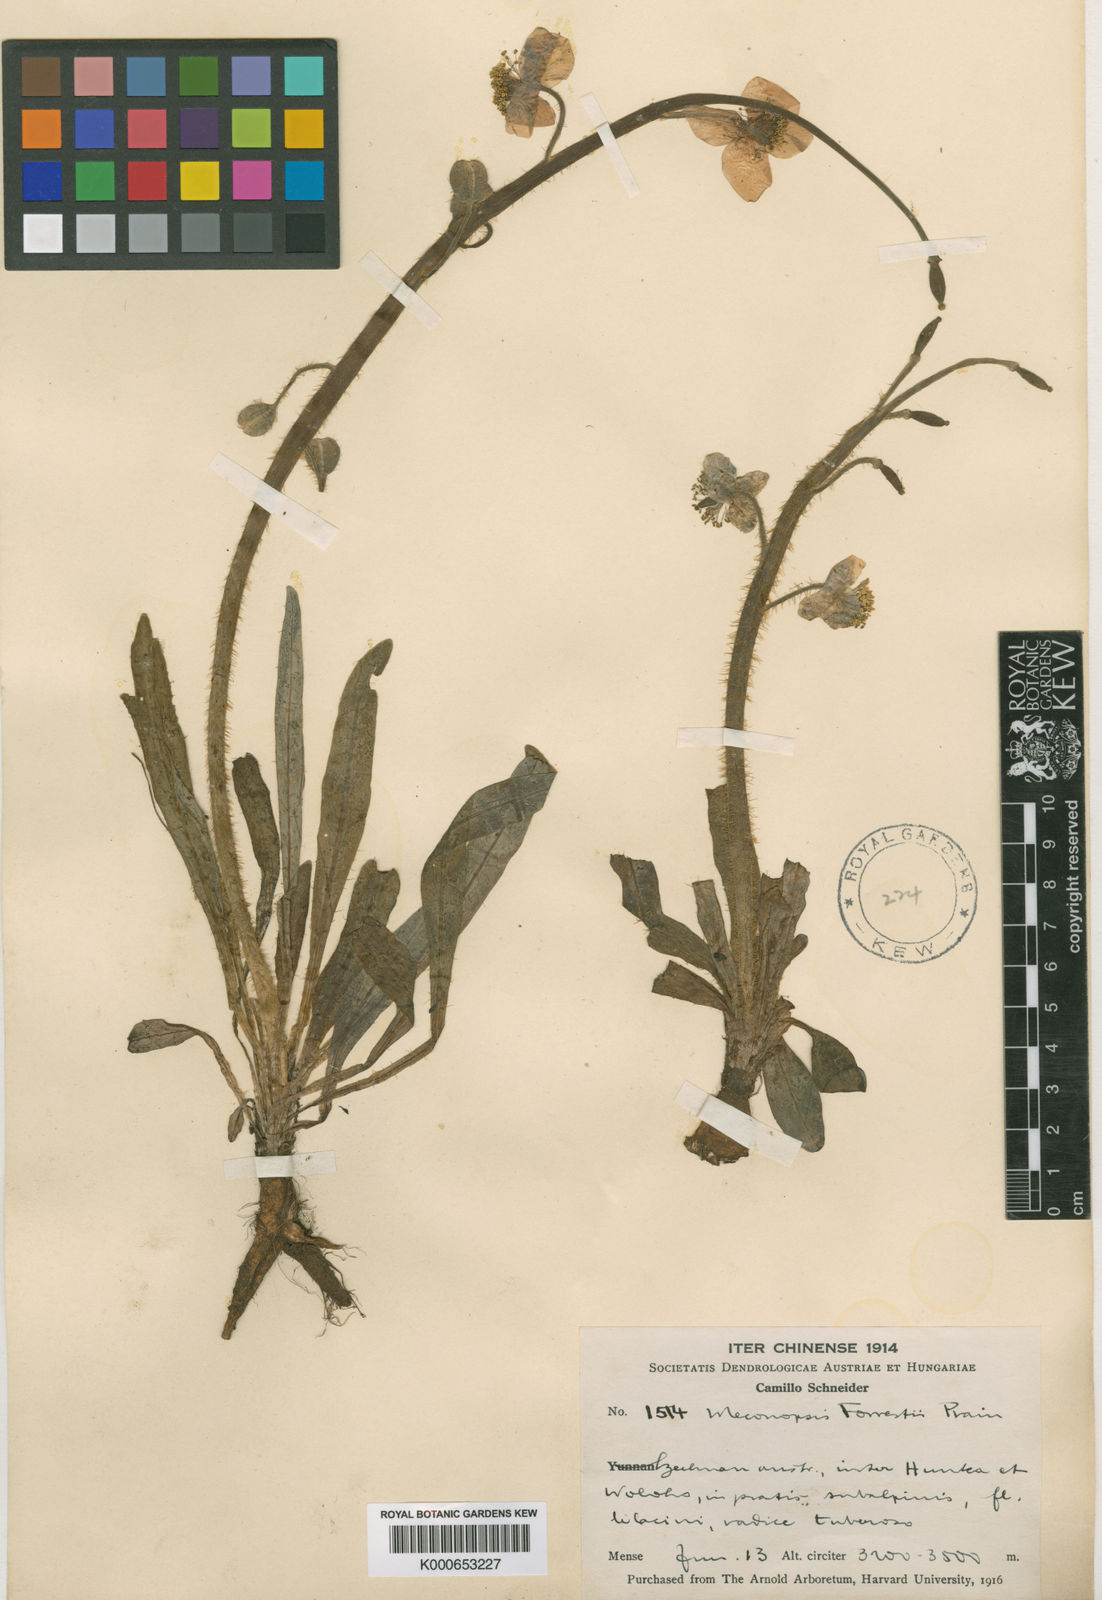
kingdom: Plantae
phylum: Tracheophyta
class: Magnoliopsida
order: Ranunculales
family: Papaveraceae
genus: Meconopsis
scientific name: Meconopsis forrestii
